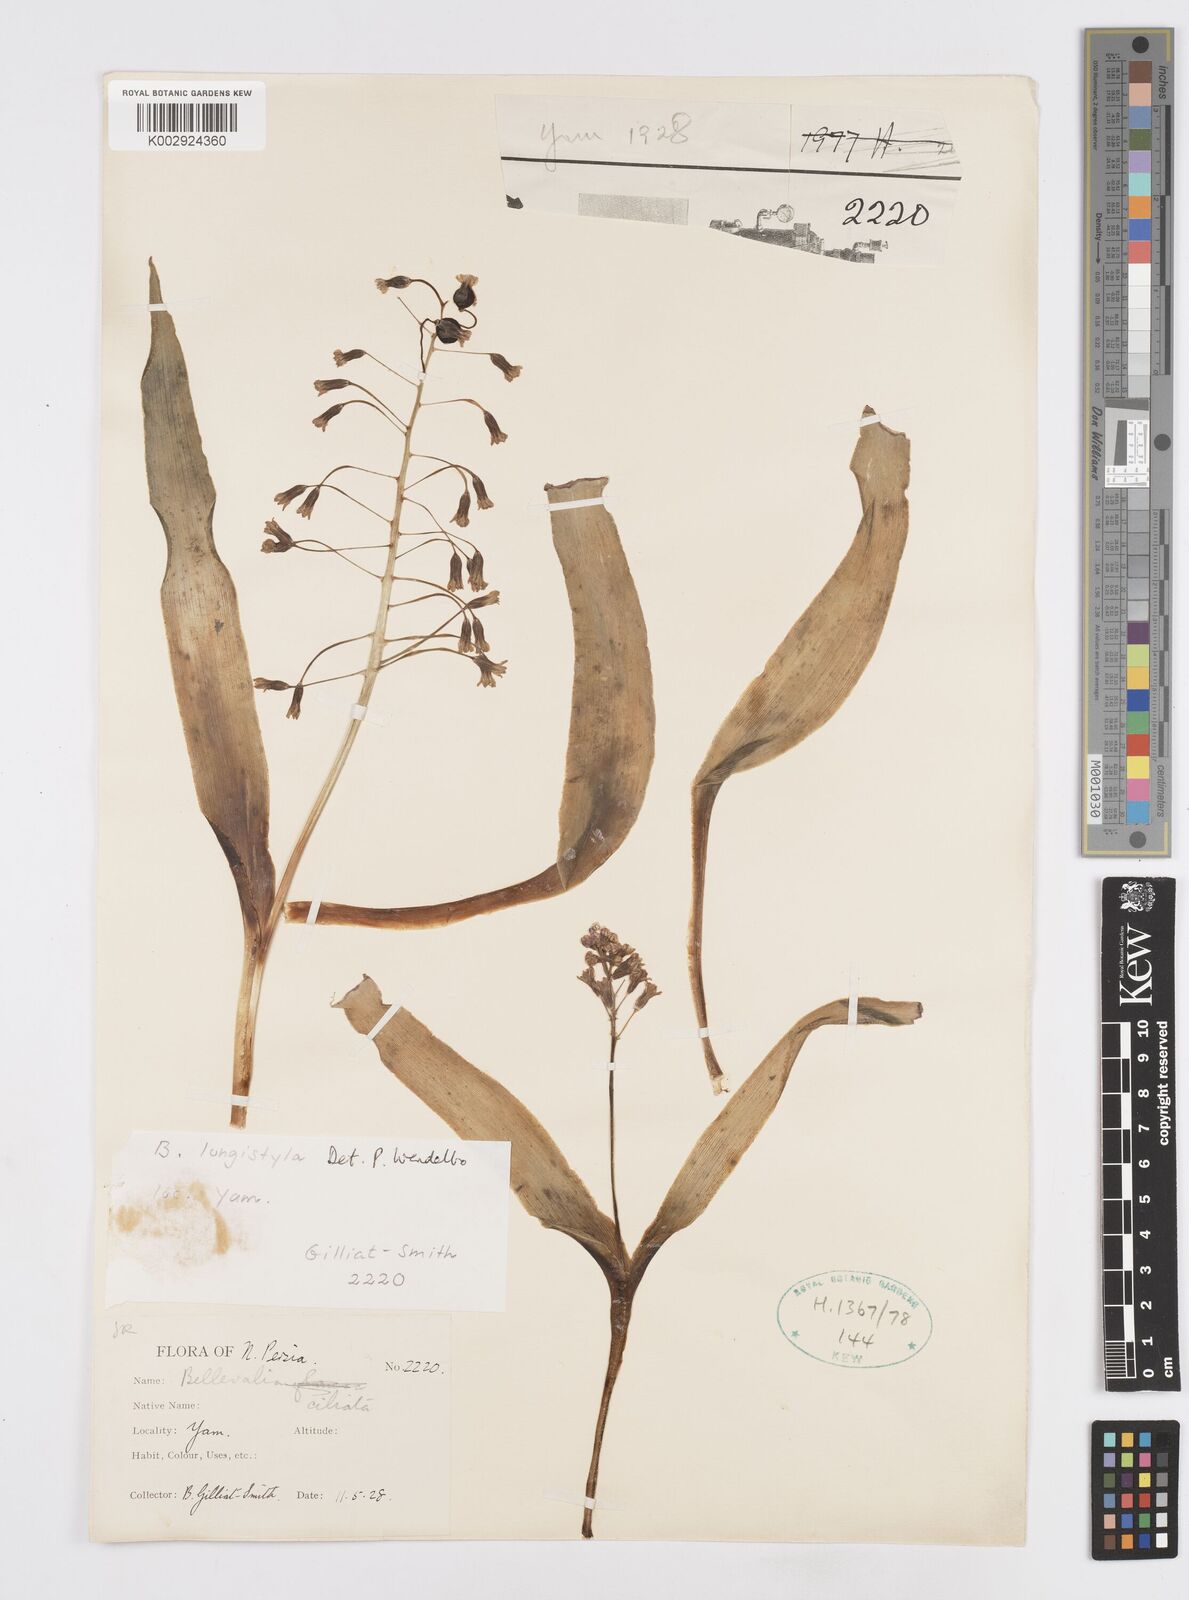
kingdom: Plantae
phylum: Tracheophyta
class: Liliopsida
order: Asparagales
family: Asparagaceae
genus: Bellevalia
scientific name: Bellevalia longistyla
